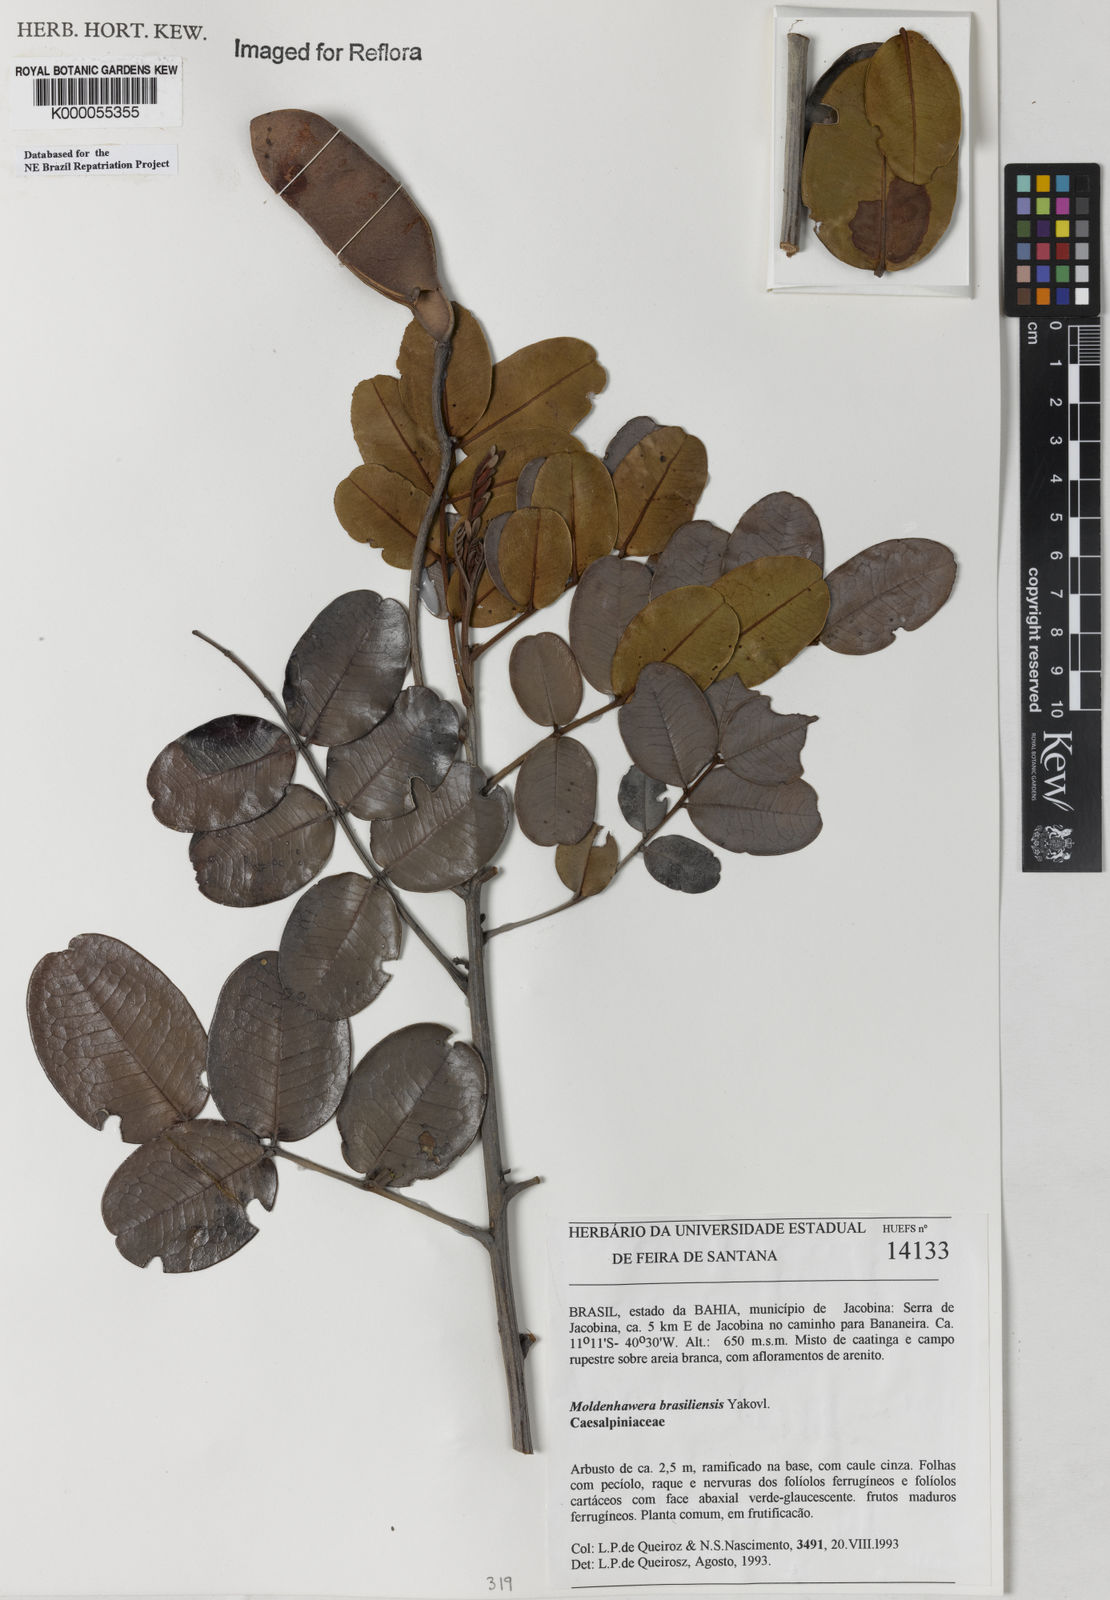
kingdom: Plantae
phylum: Tracheophyta
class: Magnoliopsida
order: Fabales
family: Fabaceae
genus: Moldenhawera
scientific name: Moldenhawera brasiliensis
